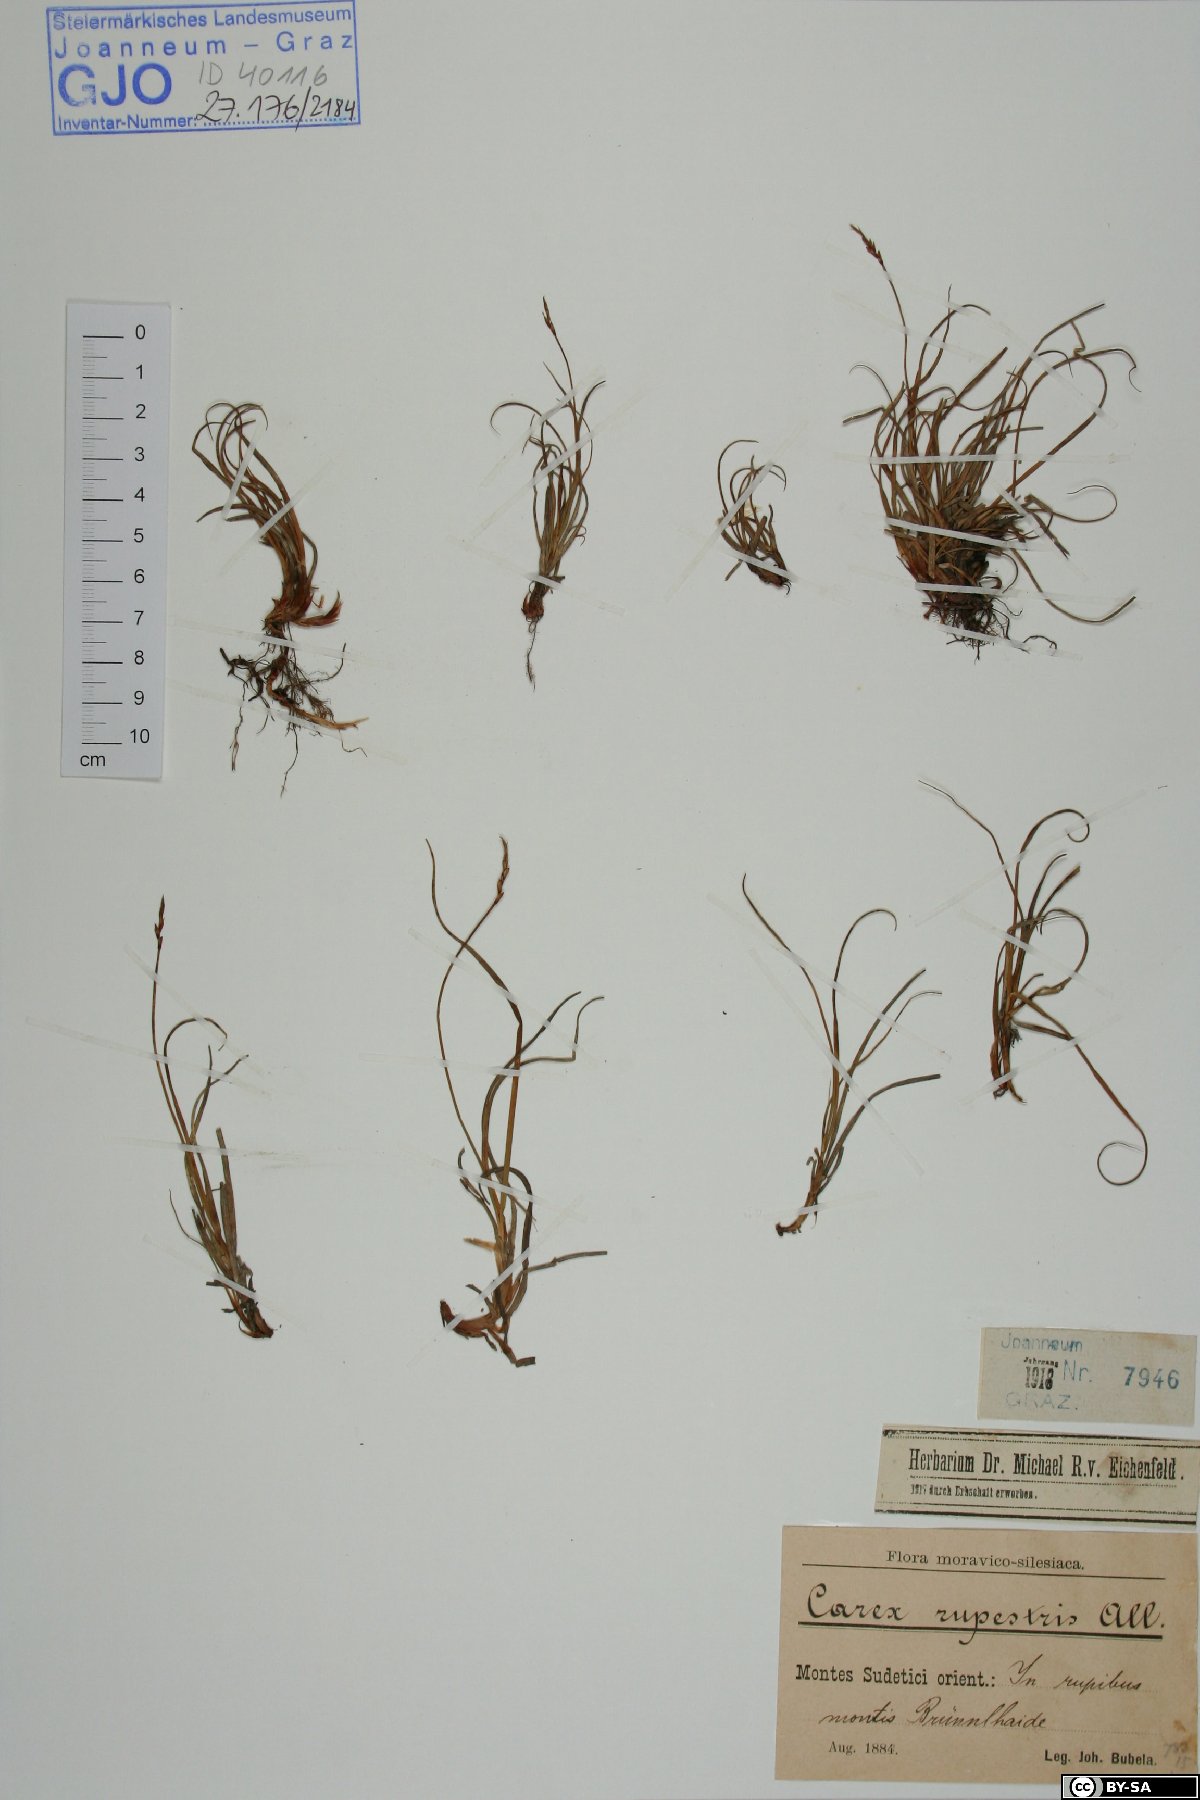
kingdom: Plantae
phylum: Tracheophyta
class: Liliopsida
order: Poales
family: Cyperaceae
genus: Carex
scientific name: Carex rupestris
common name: Rock sedge
